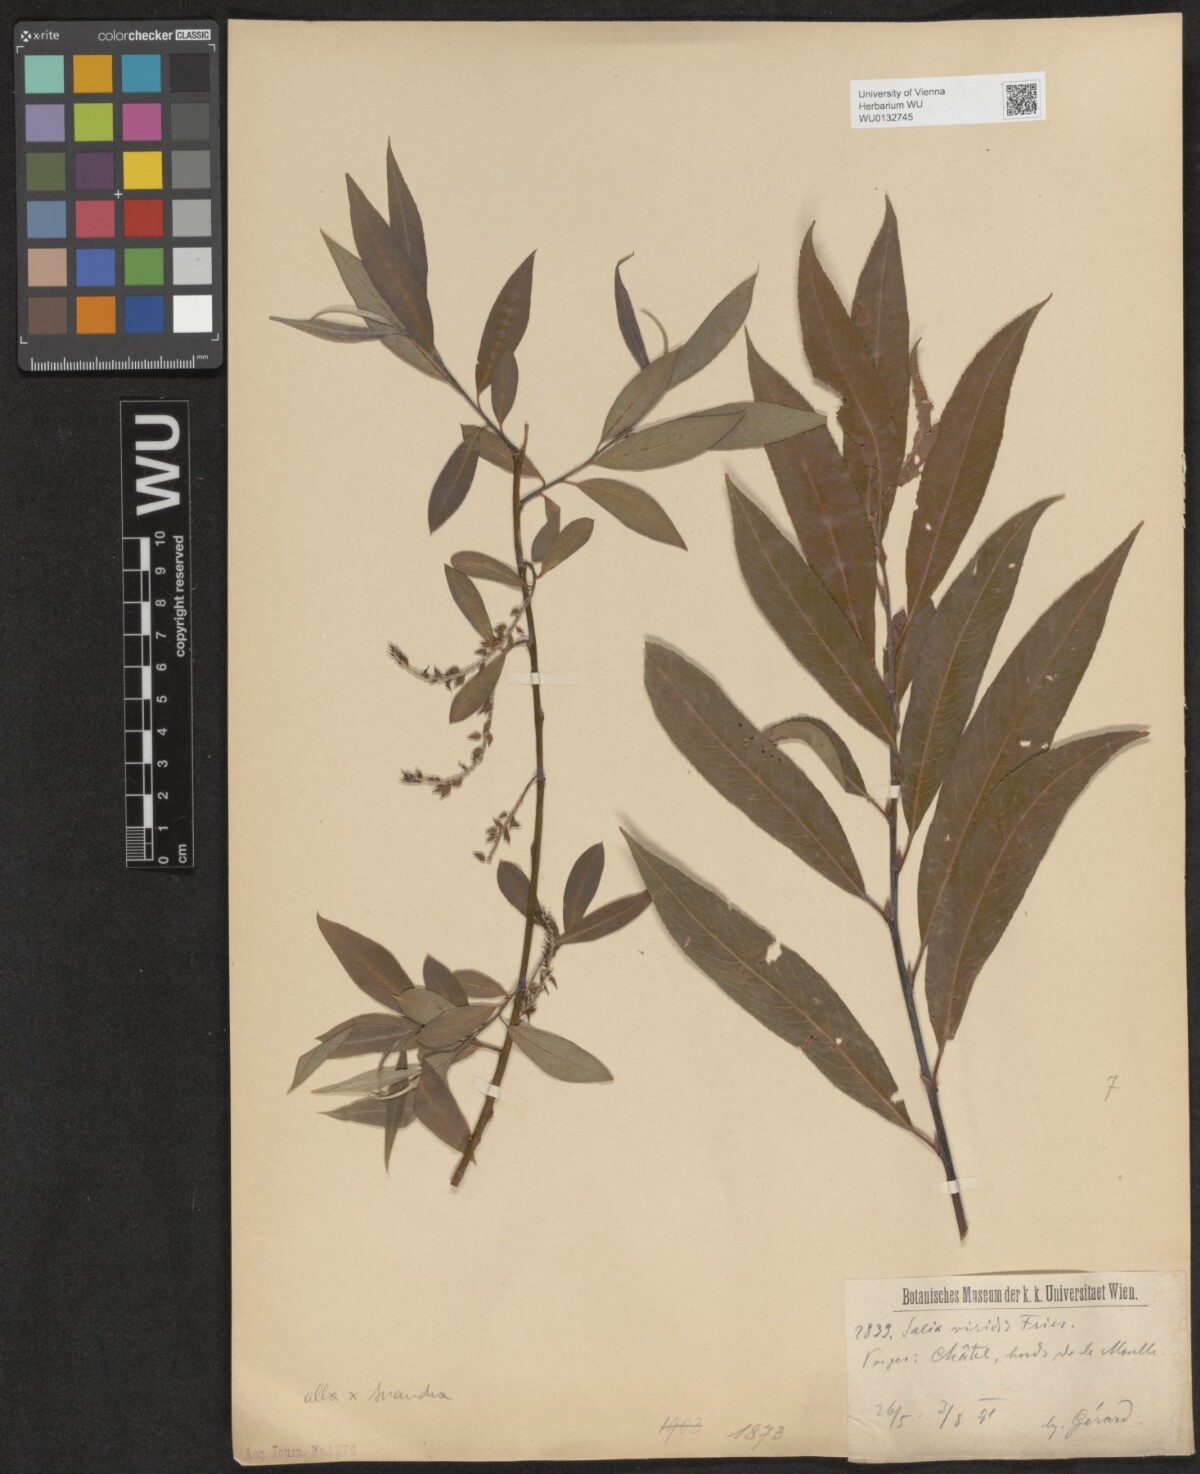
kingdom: Plantae
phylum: Tracheophyta
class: Magnoliopsida
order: Malpighiales
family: Salicaceae
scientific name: Salicaceae
